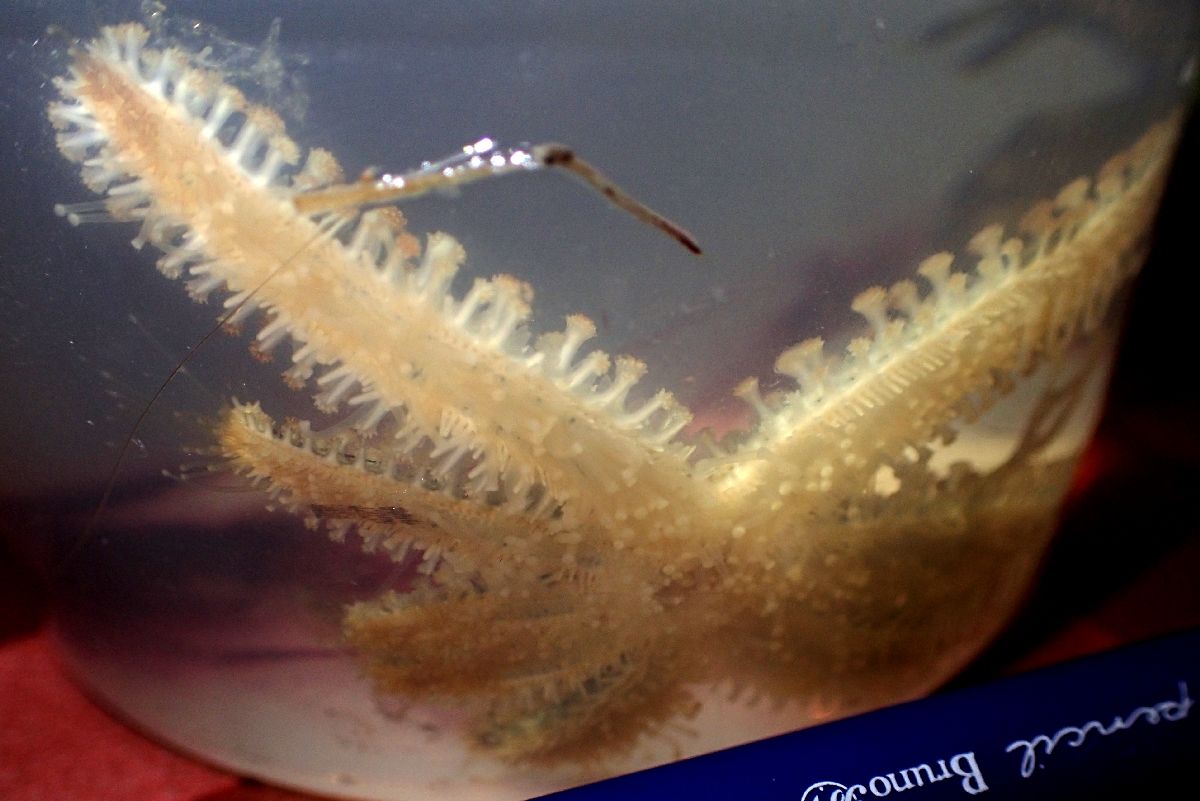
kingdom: Animalia
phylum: Echinodermata
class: Asteroidea
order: Forcipulatida
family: Asteriidae
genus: Coscinasterias
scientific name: Coscinasterias tenuispina
